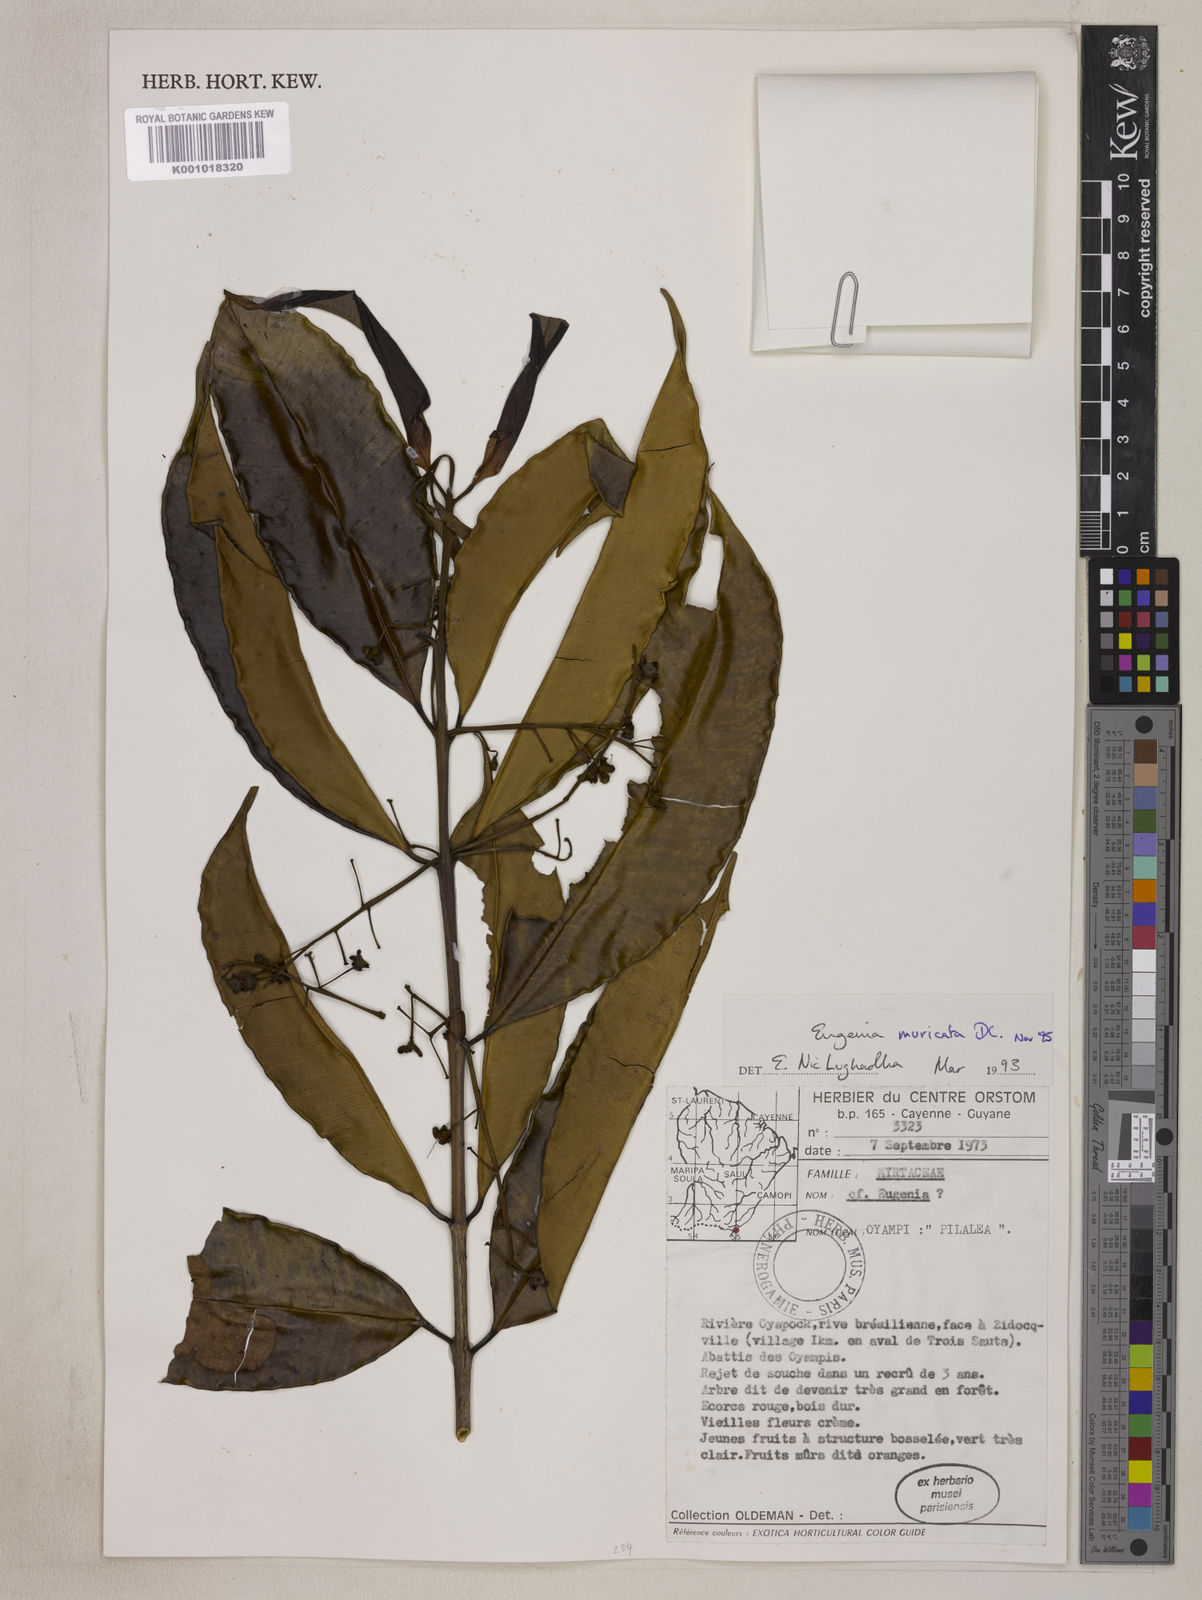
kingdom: Plantae
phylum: Tracheophyta
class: Magnoliopsida
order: Myrtales
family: Myrtaceae
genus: Eugenia
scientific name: Eugenia muricata
